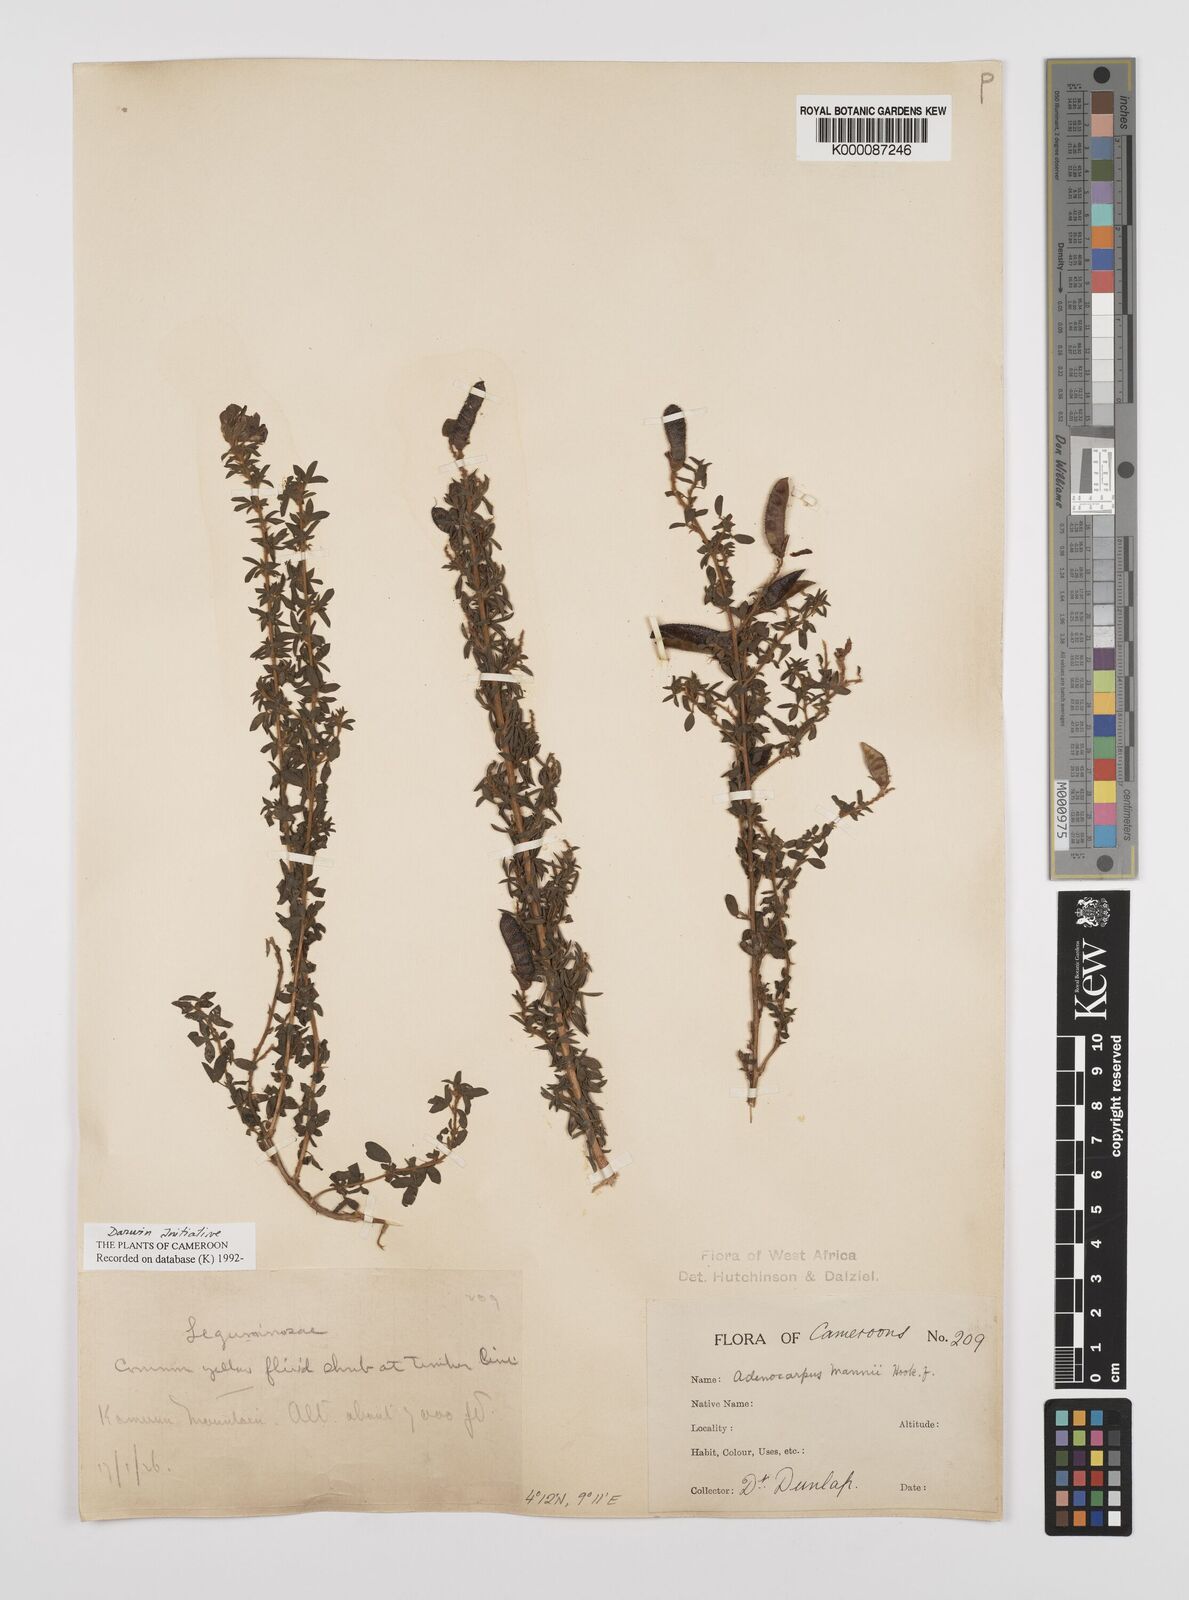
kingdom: Plantae
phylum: Tracheophyta
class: Magnoliopsida
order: Fabales
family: Fabaceae
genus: Adenocarpus
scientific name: Adenocarpus mannii
